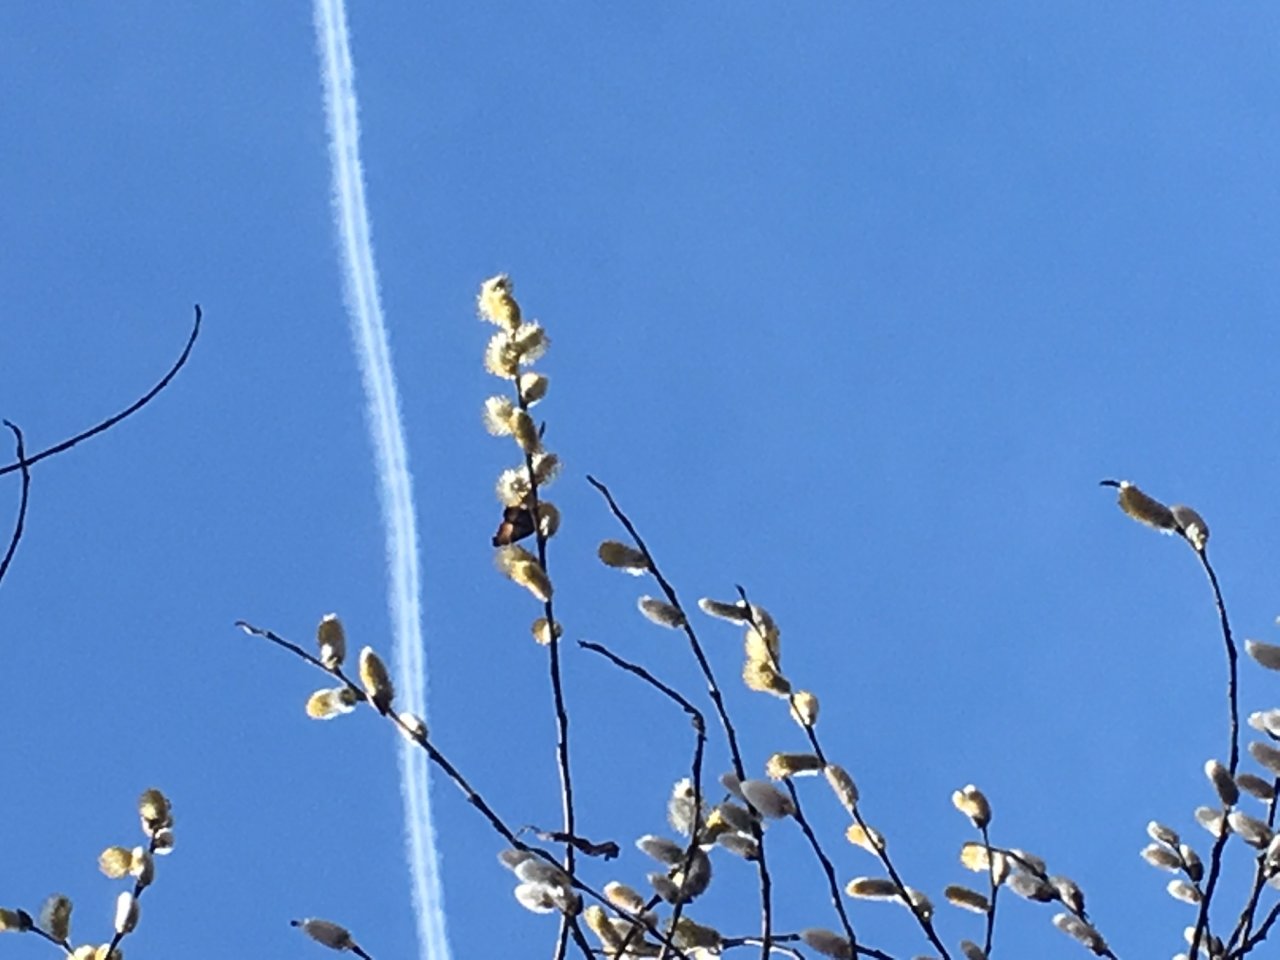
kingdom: Animalia
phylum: Arthropoda
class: Insecta
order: Lepidoptera
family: Nymphalidae
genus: Aglais
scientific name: Aglais milberti
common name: Milbert's Tortoiseshell
